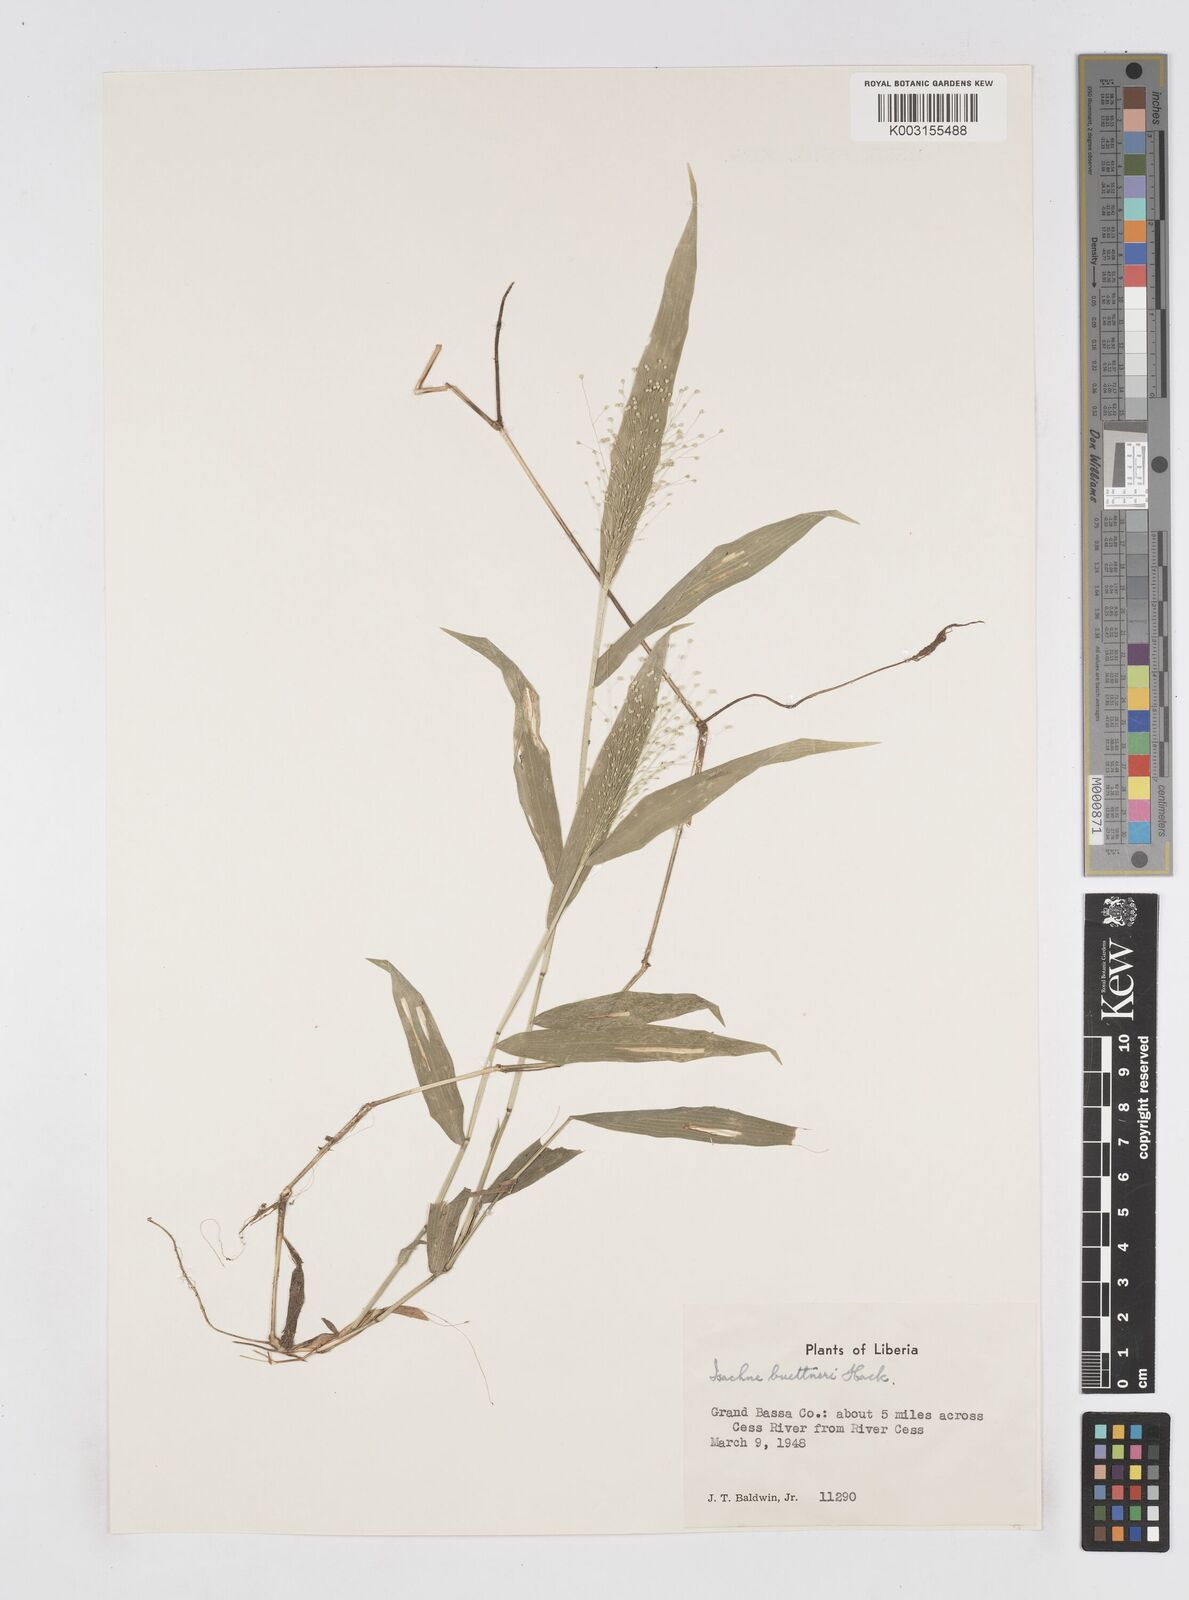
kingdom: Plantae
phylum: Tracheophyta
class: Liliopsida
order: Poales
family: Poaceae
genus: Isachne
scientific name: Isachne albens
